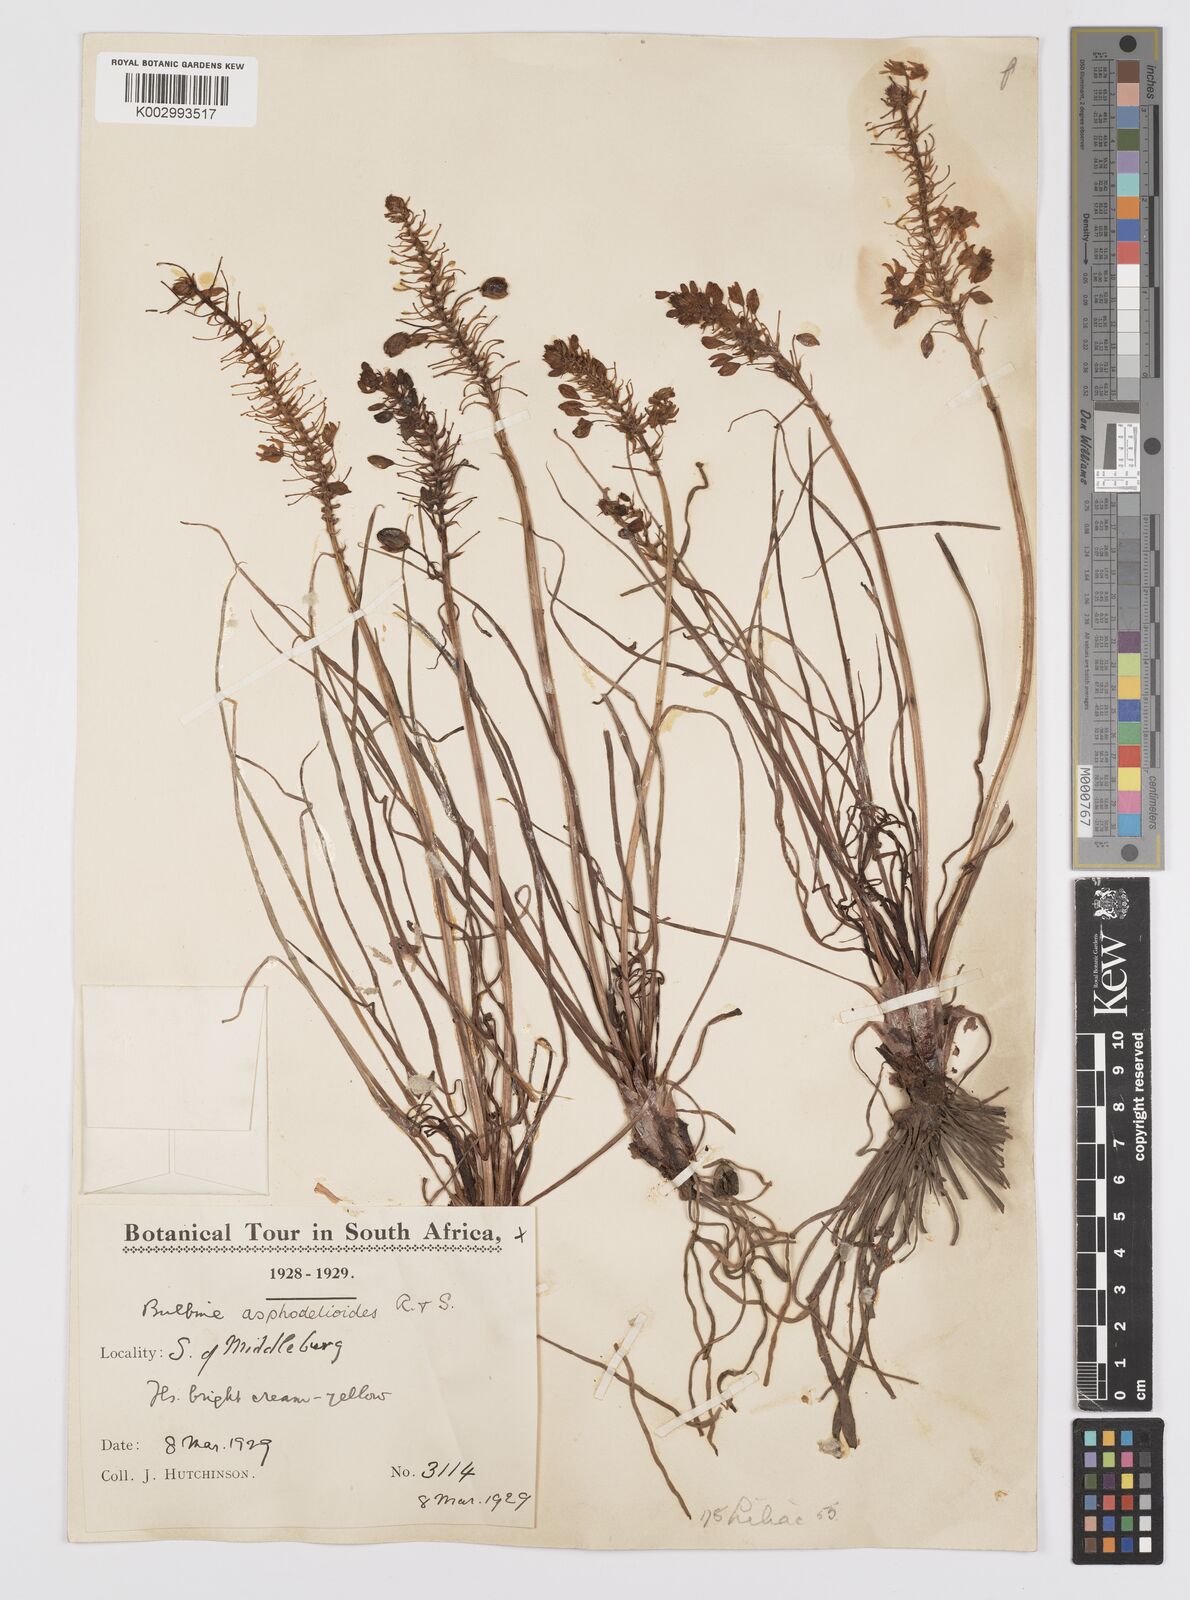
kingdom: Plantae
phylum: Tracheophyta
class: Liliopsida
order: Asparagales
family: Asphodelaceae
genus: Bulbine
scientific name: Bulbine asphodeloides
